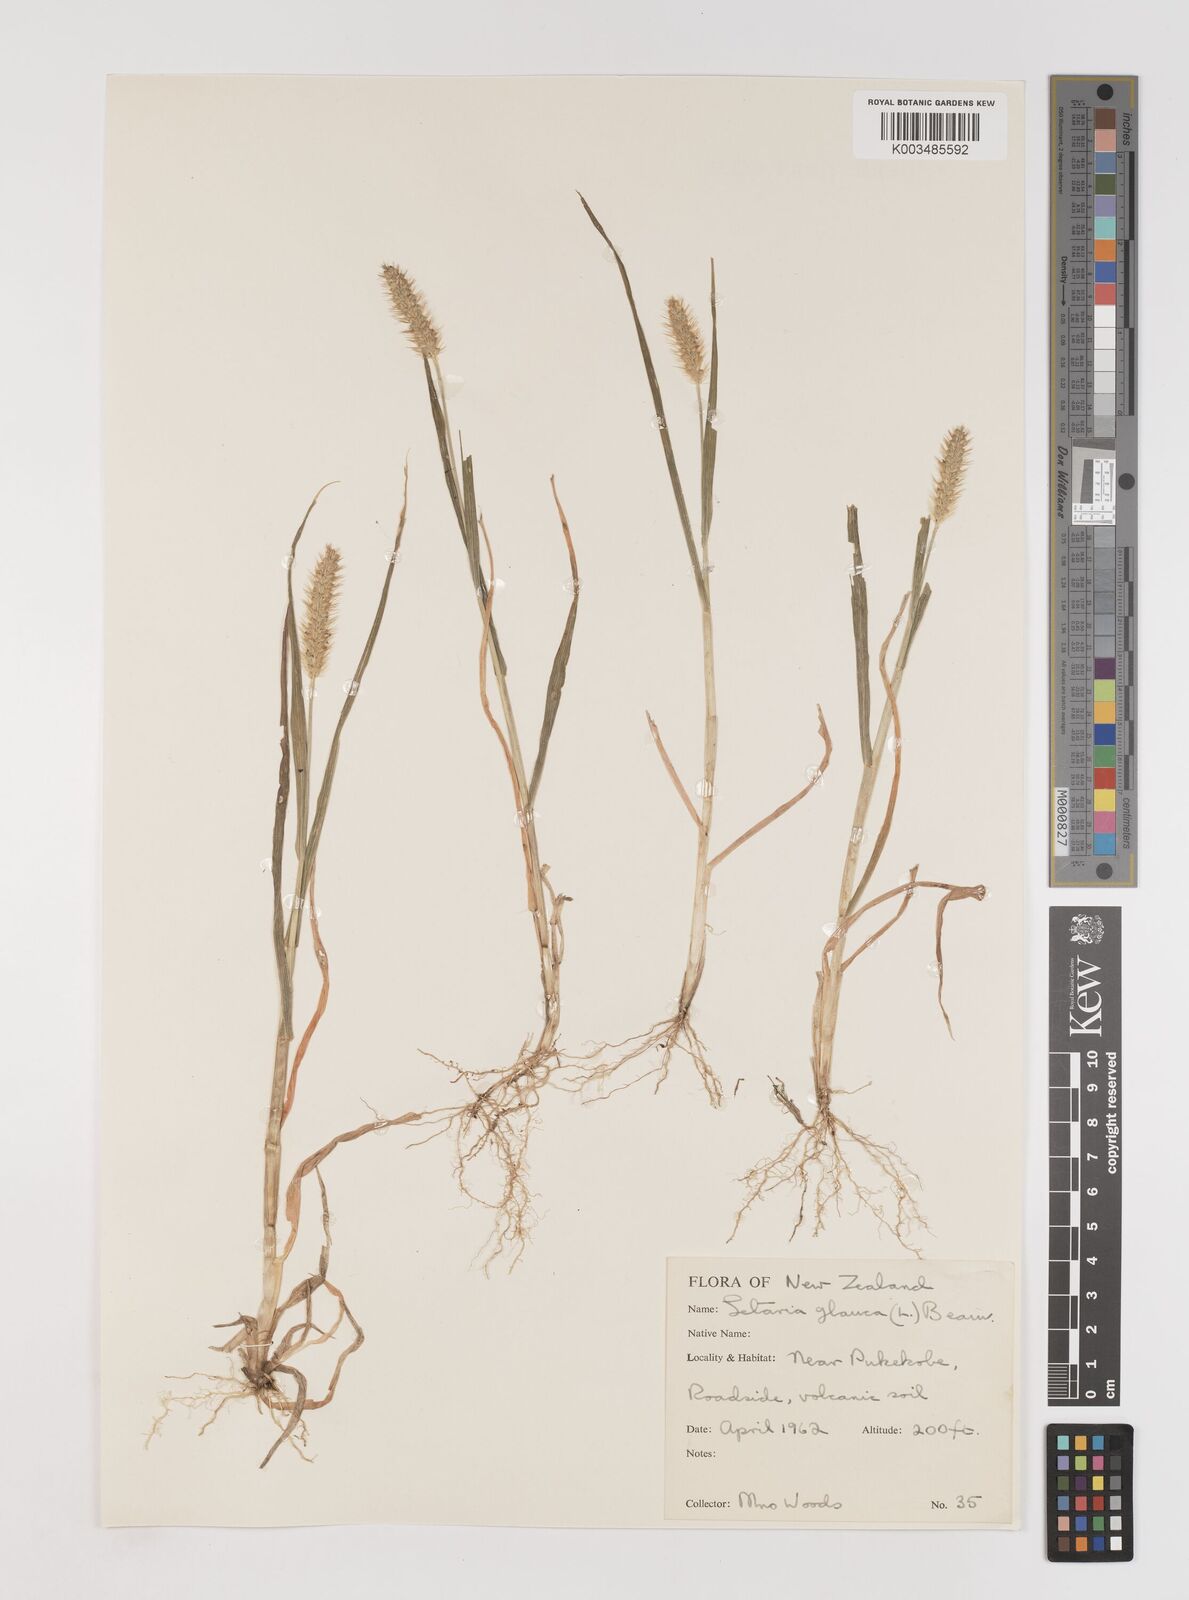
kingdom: Plantae
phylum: Tracheophyta
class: Liliopsida
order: Poales
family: Poaceae
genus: Setaria
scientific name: Setaria pumila
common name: Yellow bristle-grass
